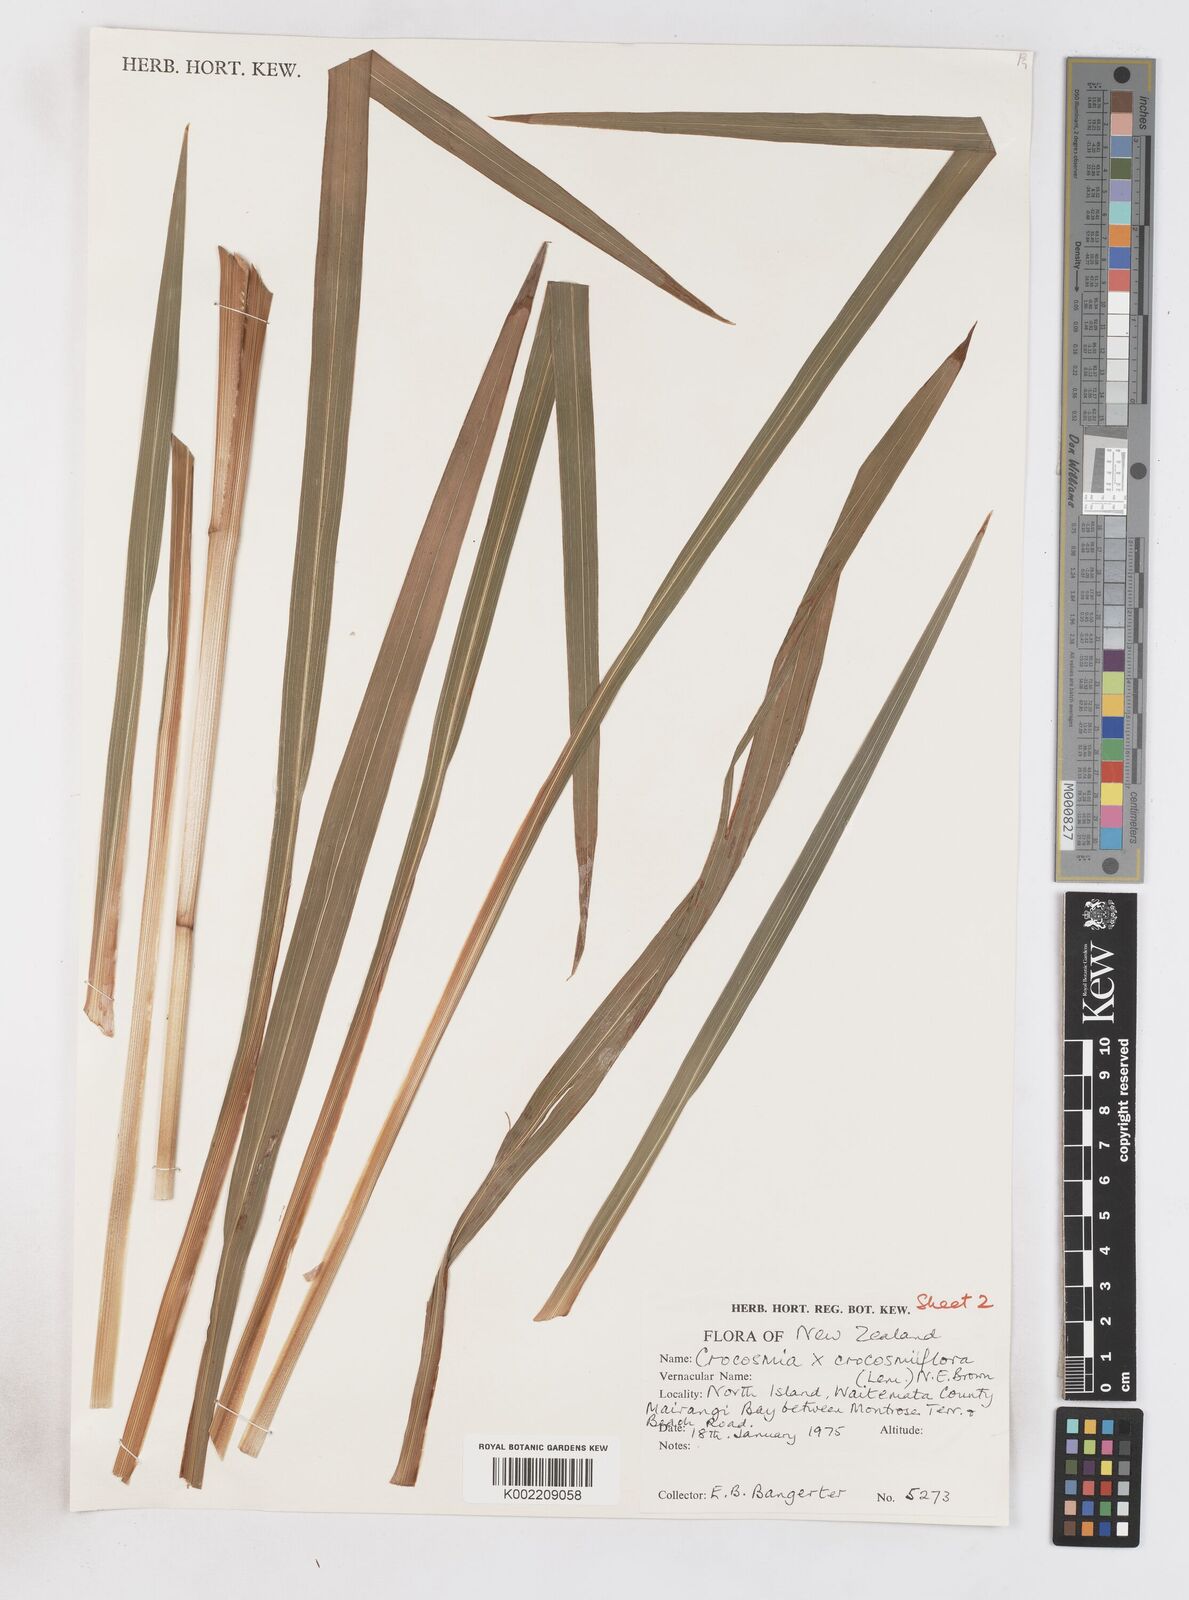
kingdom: Plantae
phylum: Tracheophyta
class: Liliopsida
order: Asparagales
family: Iridaceae
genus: Crocosmia
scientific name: Crocosmia crocosmiiflora
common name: Montbretia
